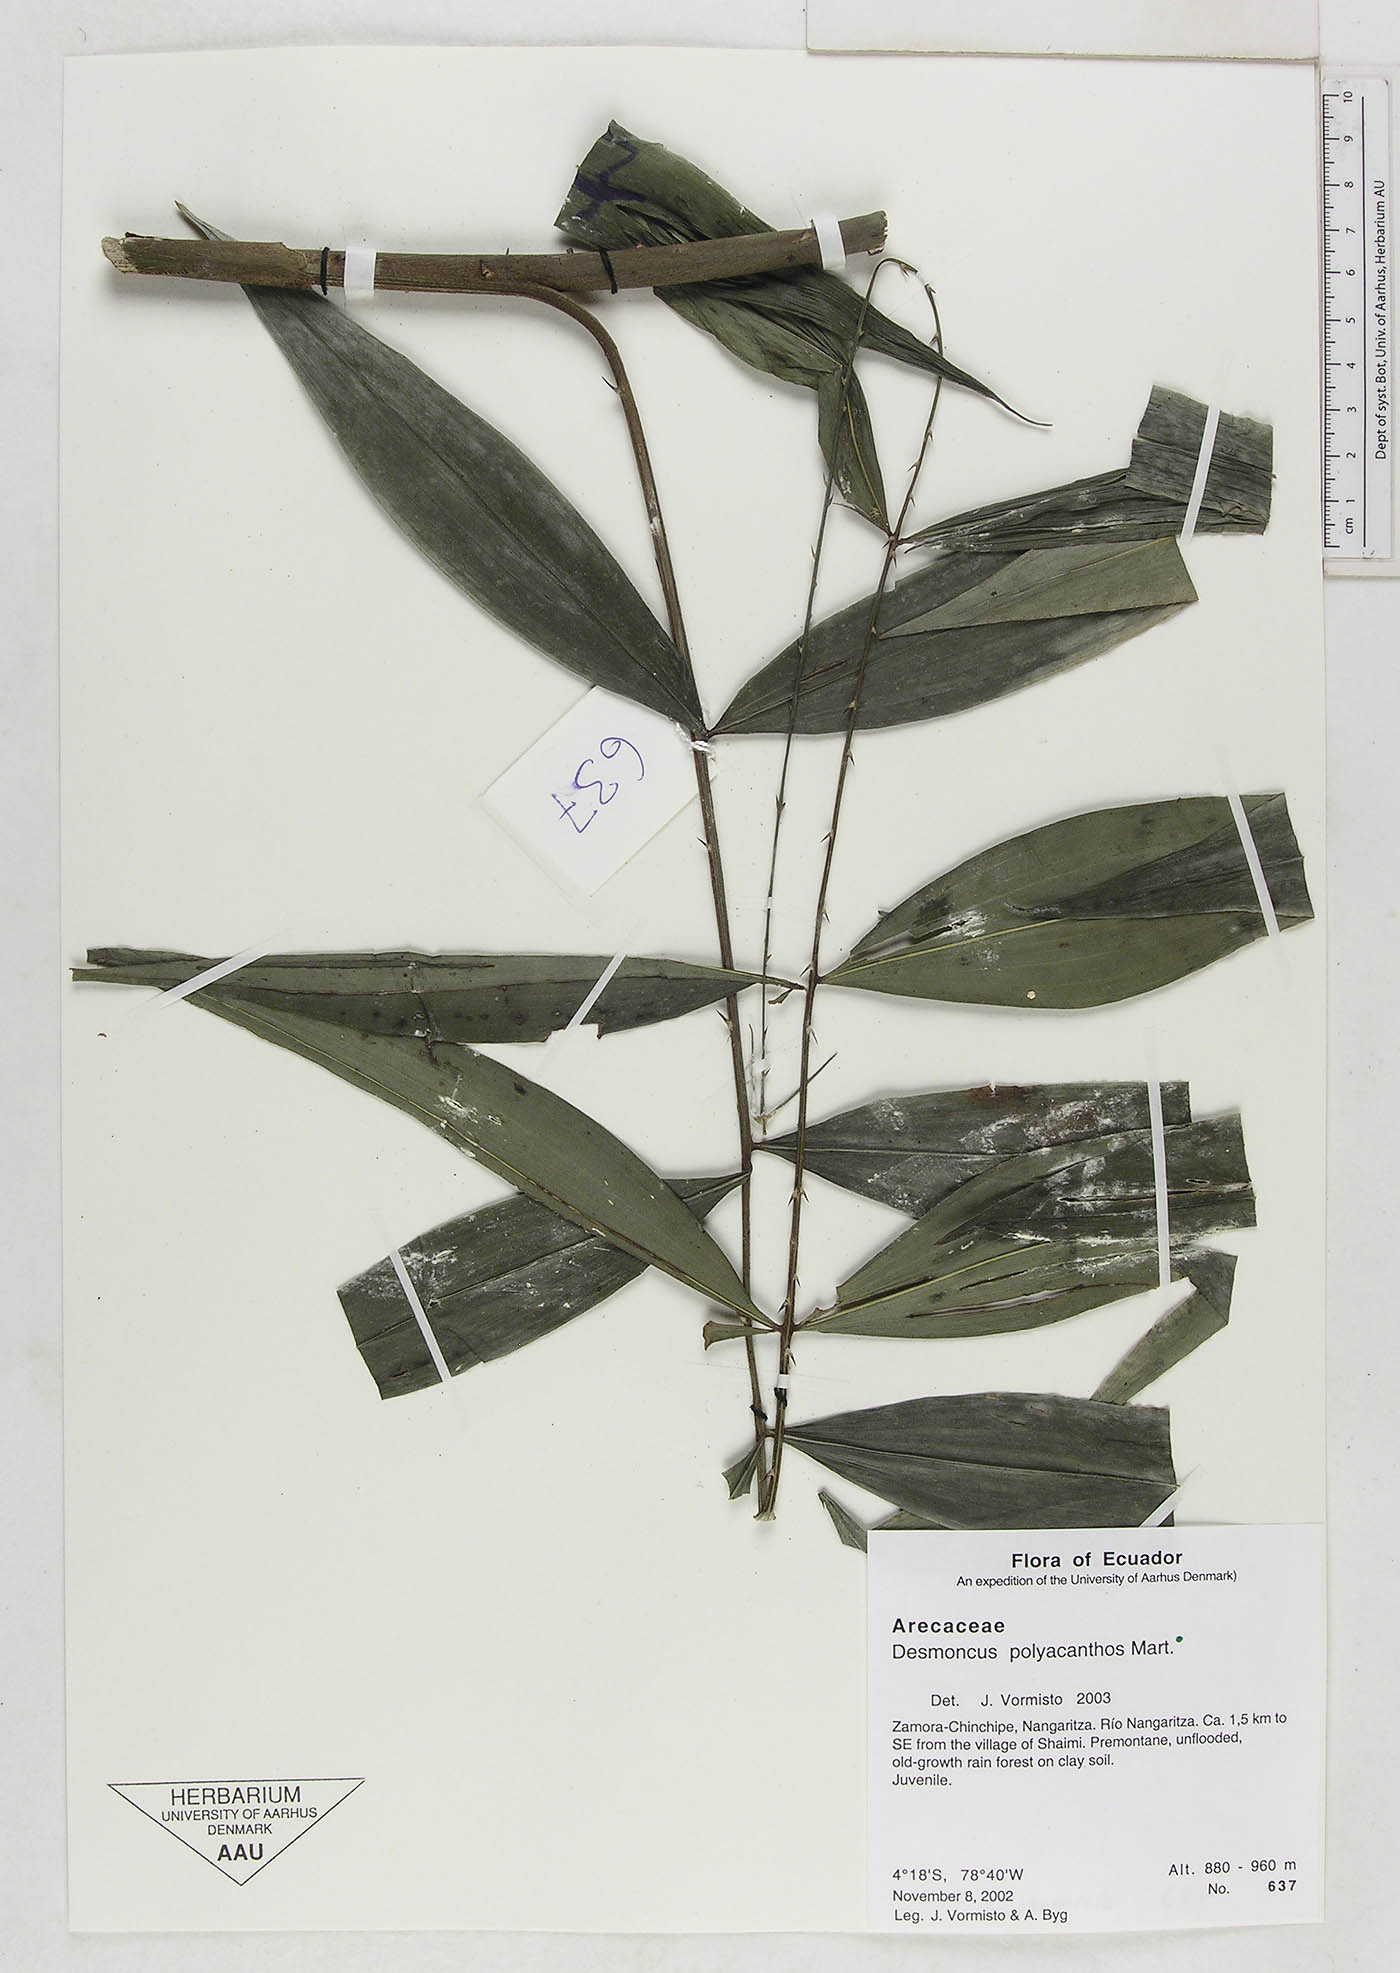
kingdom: Plantae
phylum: Tracheophyta
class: Liliopsida
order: Arecales
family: Arecaceae
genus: Desmoncus
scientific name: Desmoncus polyacanthos
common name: Suriname bramble palm
